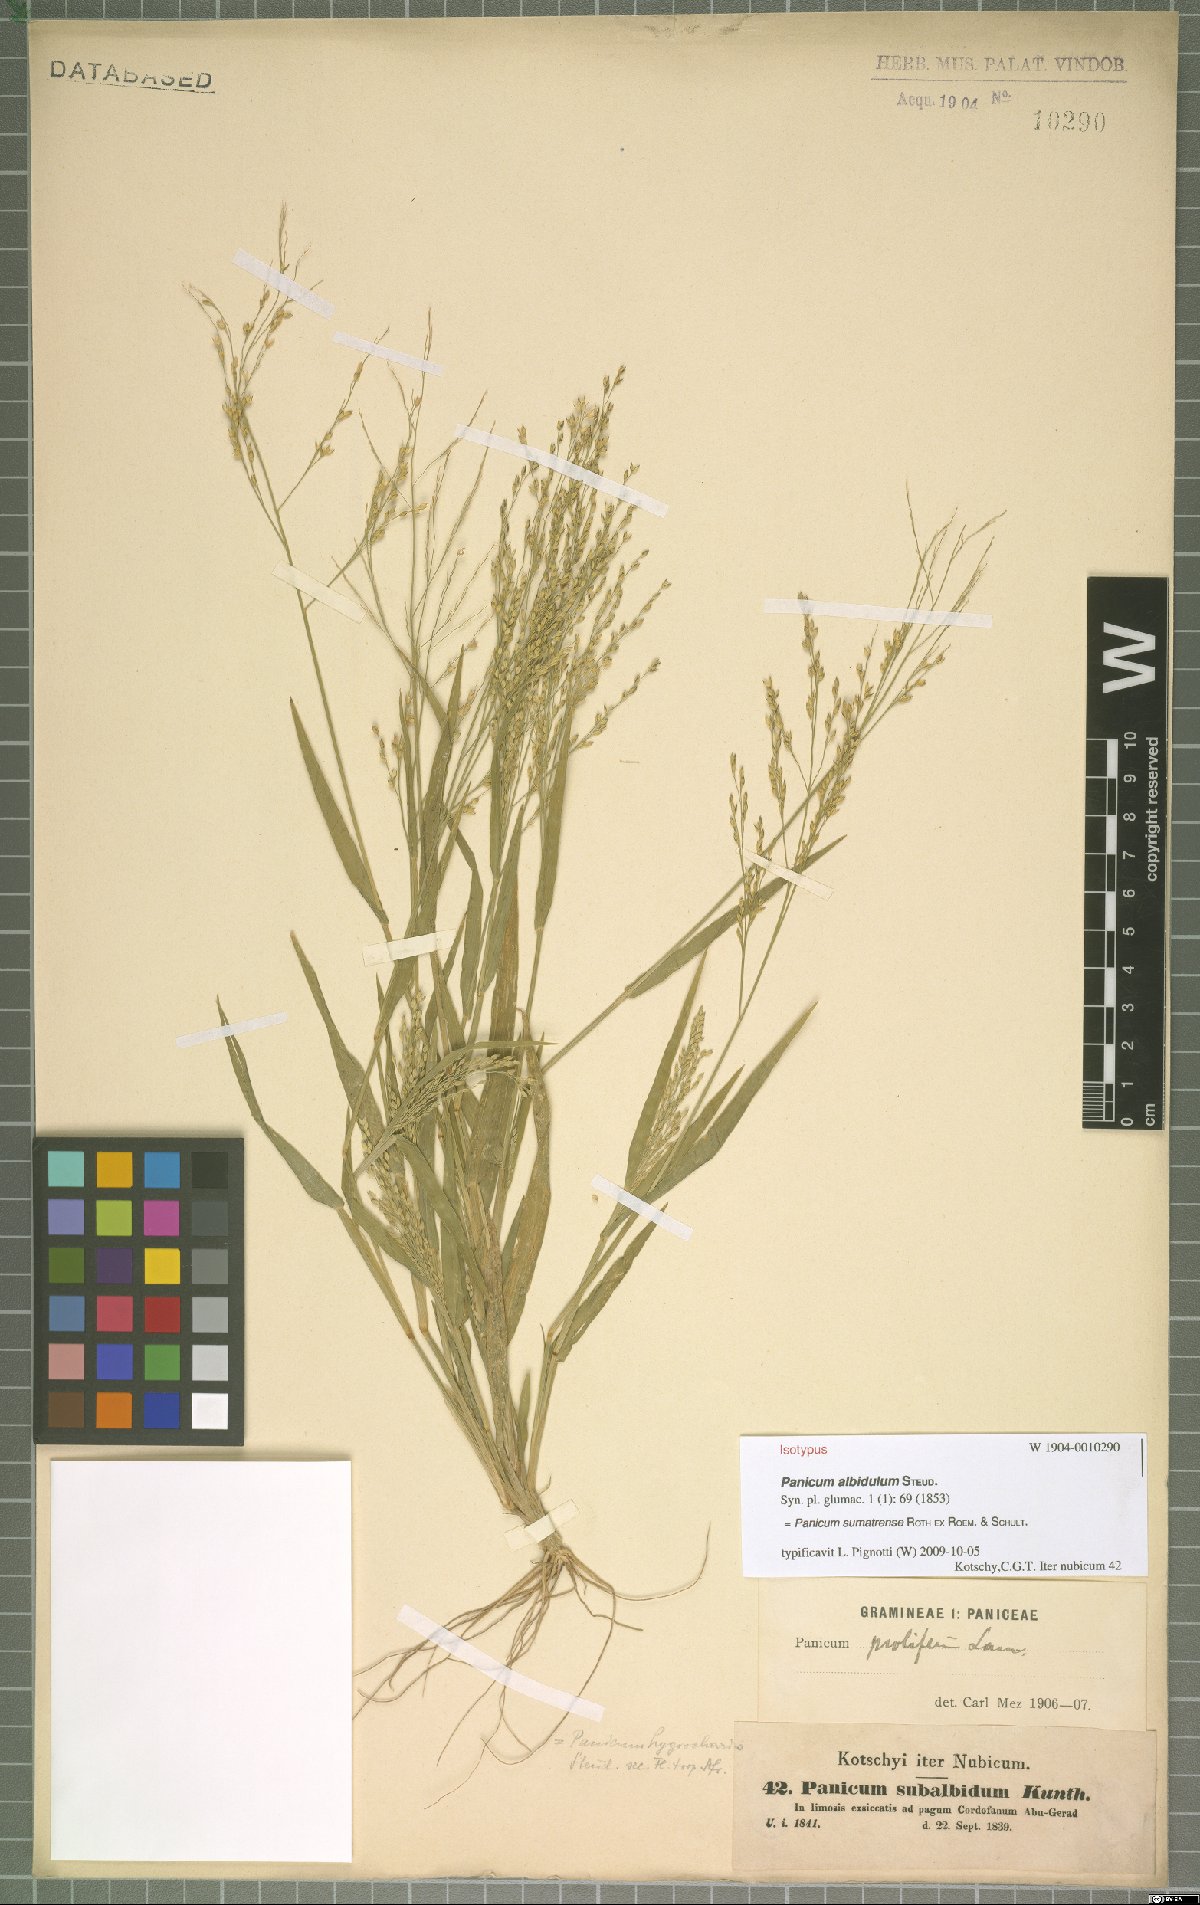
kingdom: Plantae
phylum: Tracheophyta
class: Liliopsida
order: Poales
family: Poaceae
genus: Panicum
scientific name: Panicum sumatrense
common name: Little millet
